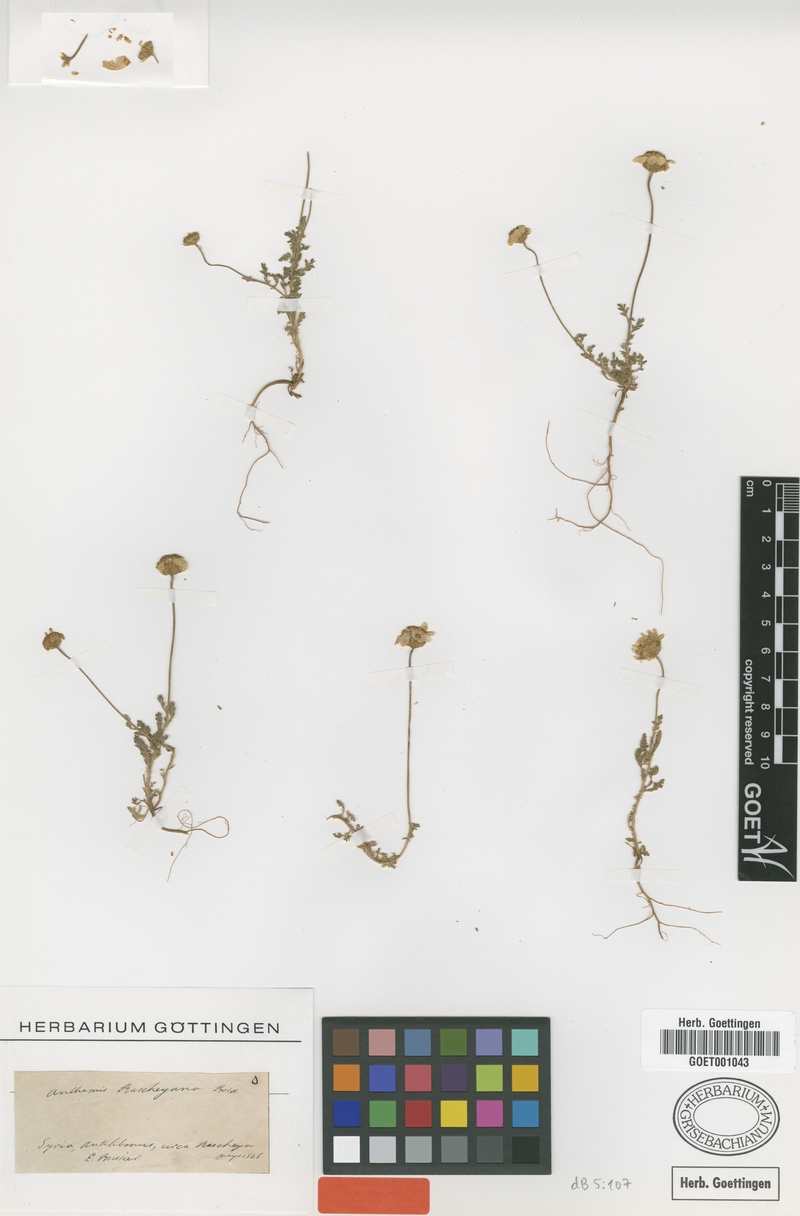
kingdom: Plantae
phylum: Tracheophyta
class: Magnoliopsida
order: Asterales
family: Asteraceae
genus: Anthemis
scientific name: Anthemis rascheyana
